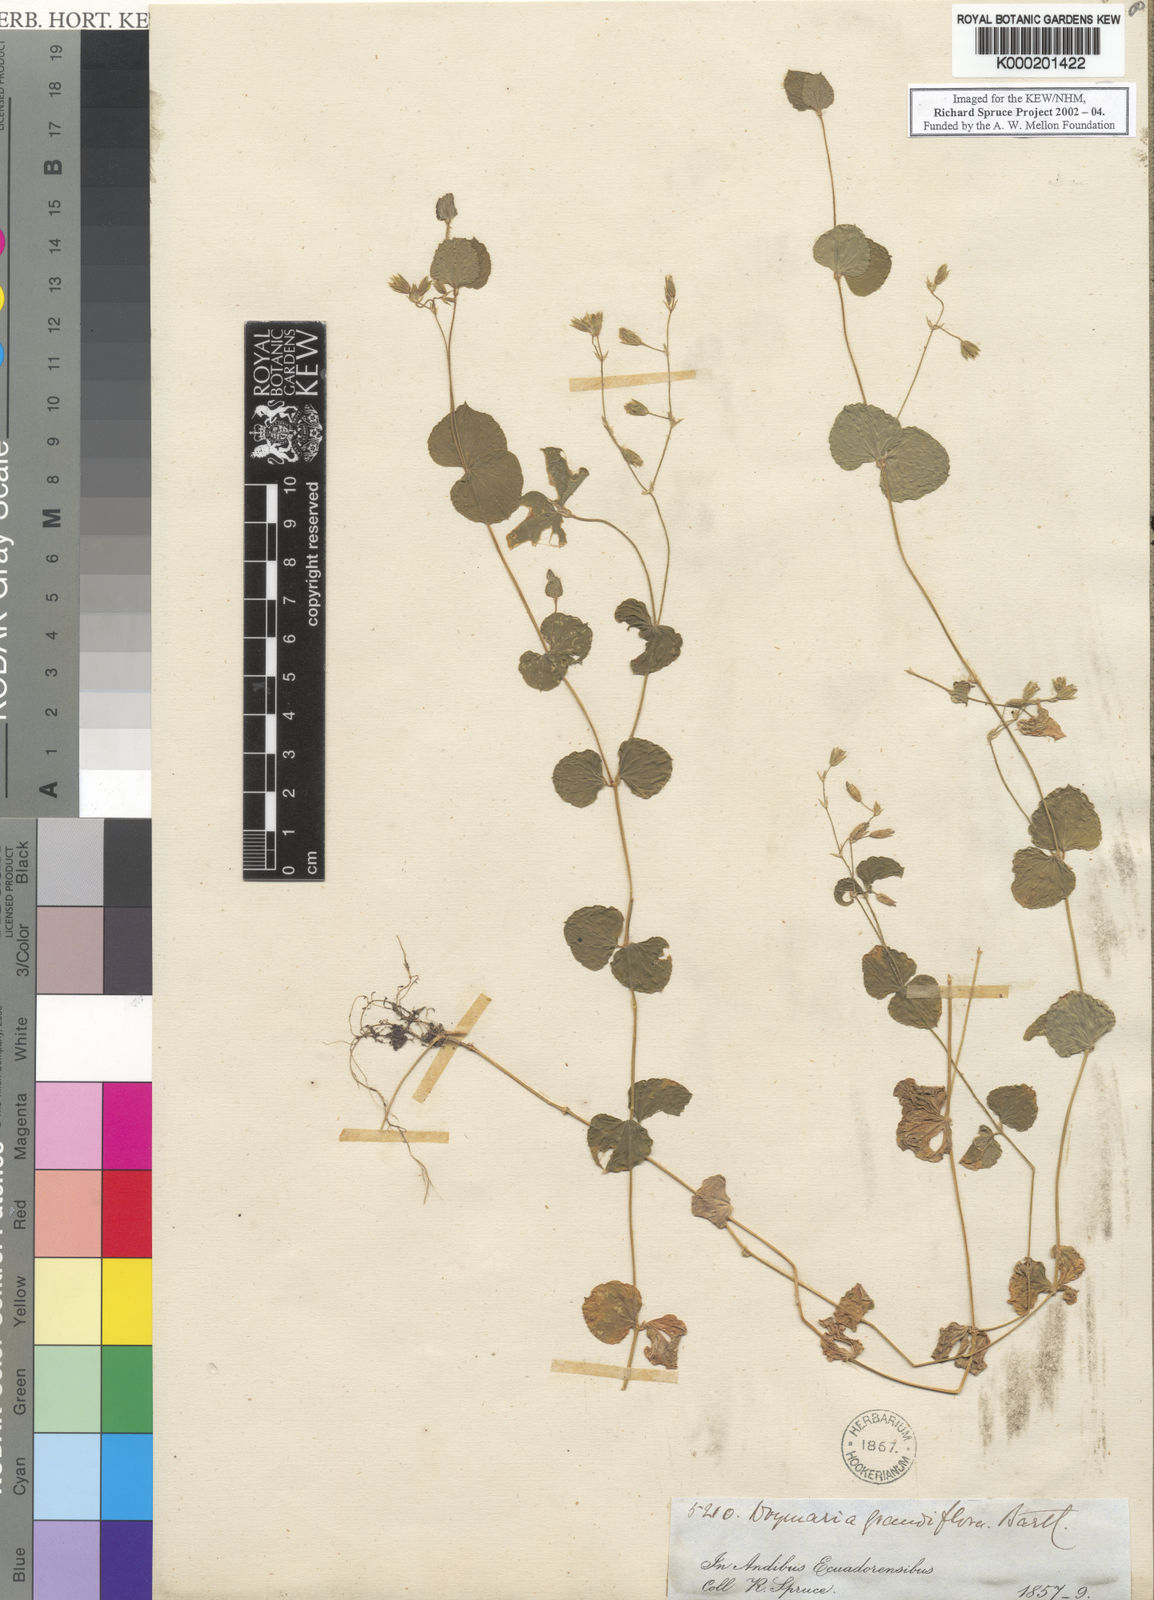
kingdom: Plantae
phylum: Tracheophyta
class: Magnoliopsida
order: Caryophyllales
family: Caryophyllaceae
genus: Drymaria
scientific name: Drymaria grandiflora
